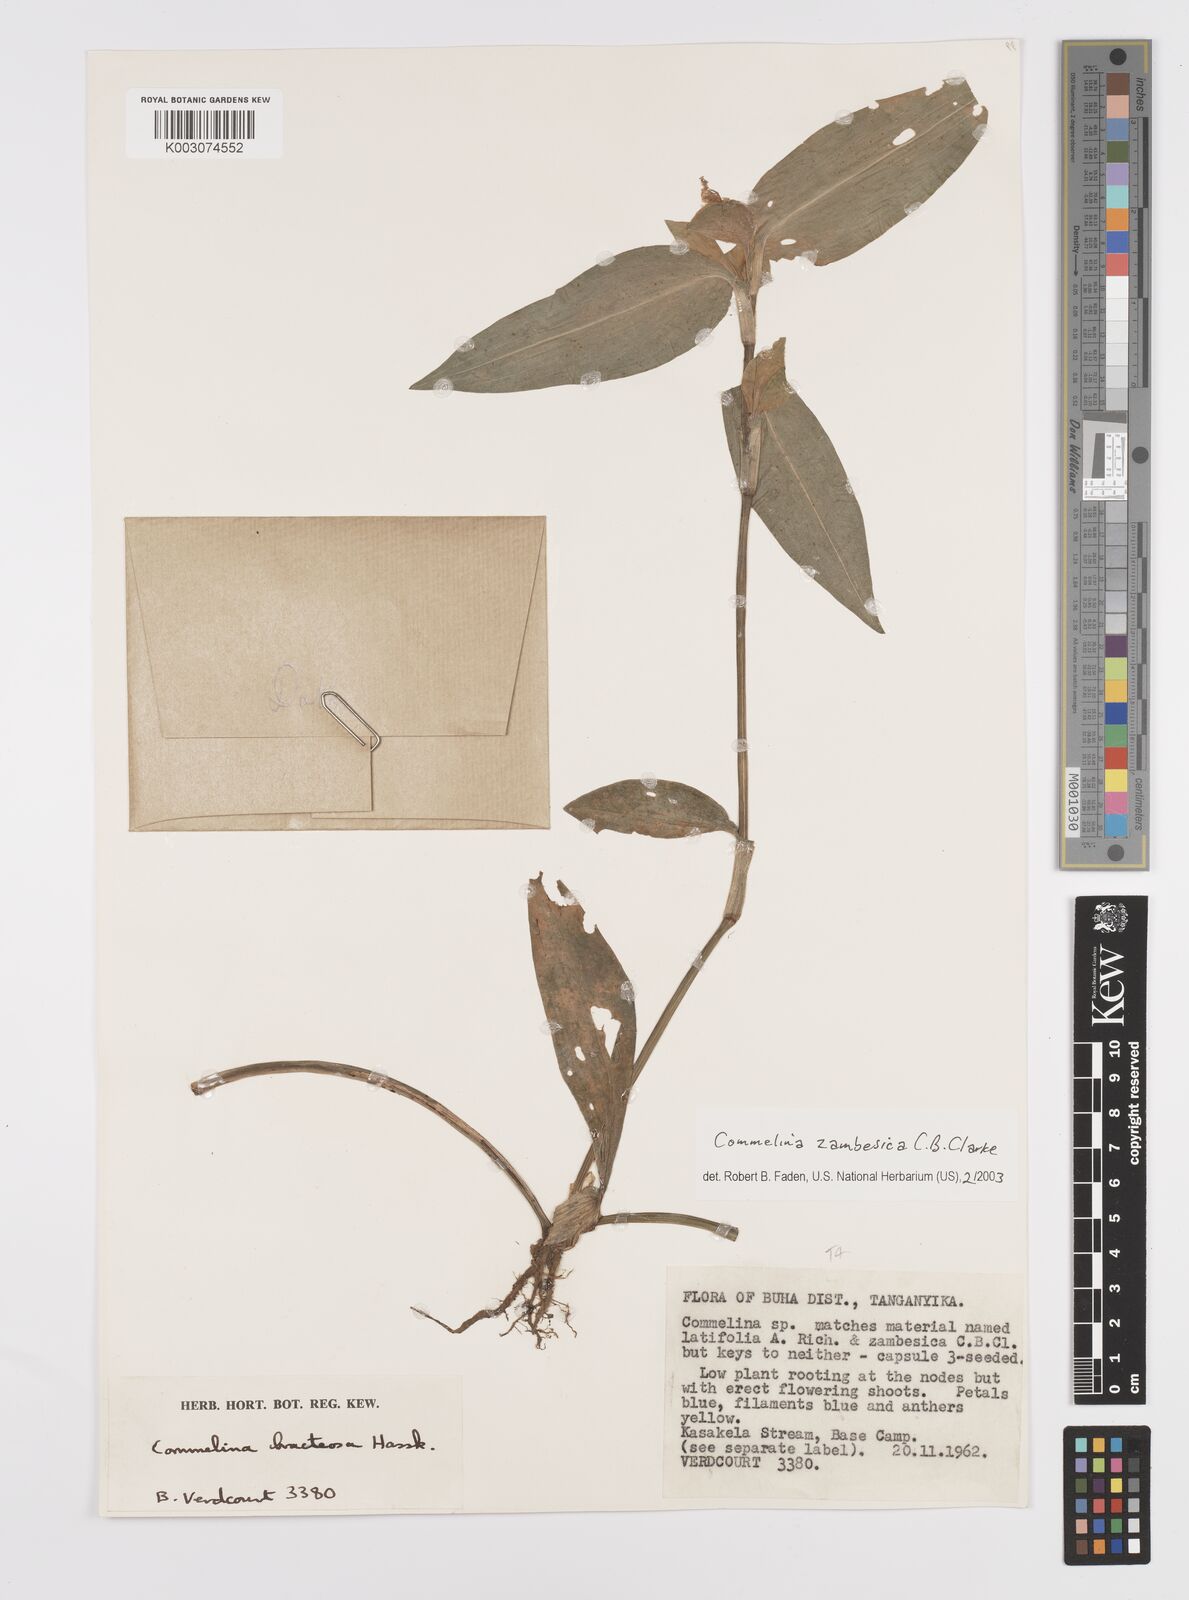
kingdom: Plantae
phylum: Tracheophyta
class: Liliopsida
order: Commelinales
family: Commelinaceae
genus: Commelina
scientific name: Commelina zambesica
